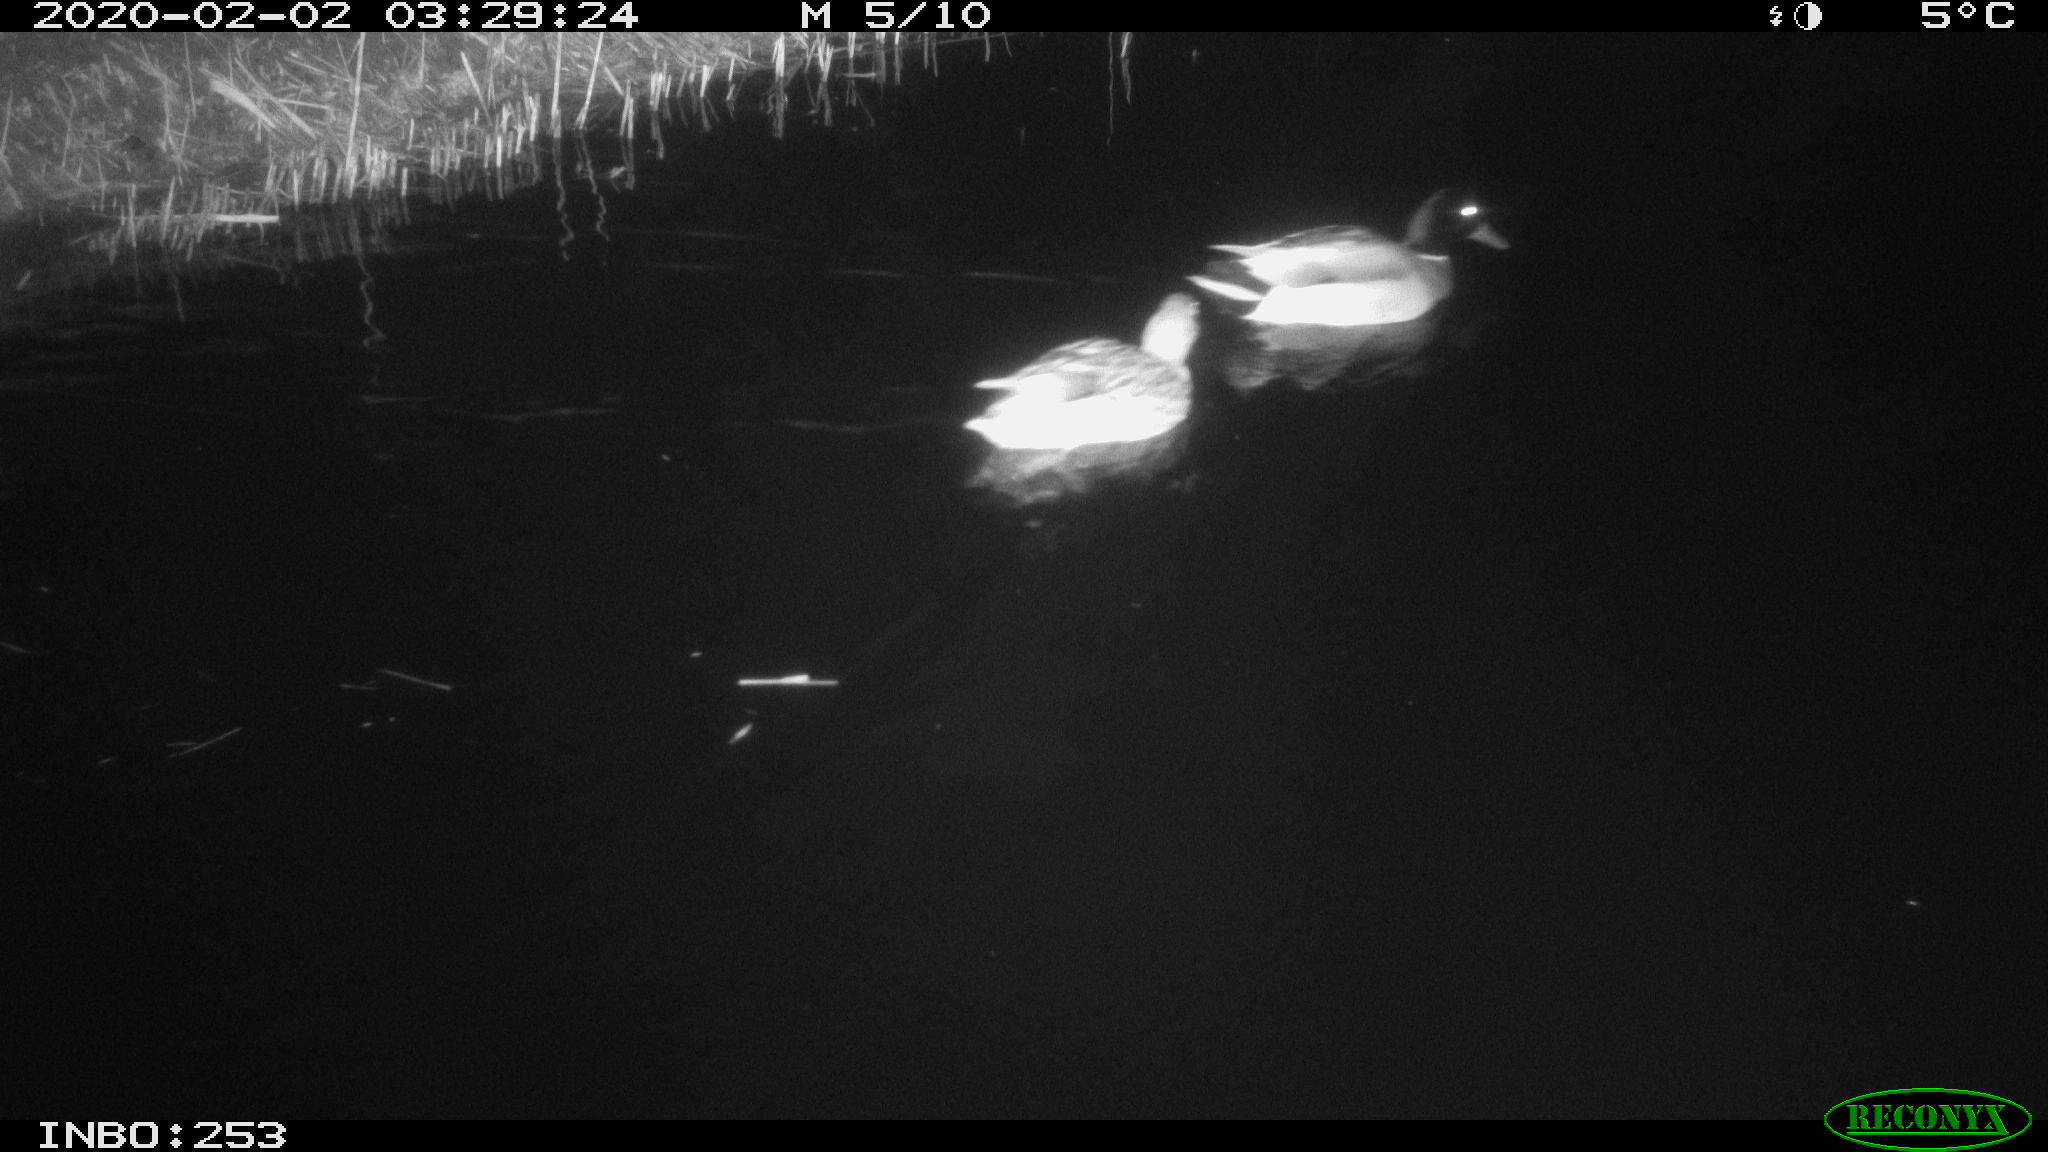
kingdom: Animalia
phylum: Chordata
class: Aves
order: Anseriformes
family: Anatidae
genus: Anas
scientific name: Anas platyrhynchos
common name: Mallard
